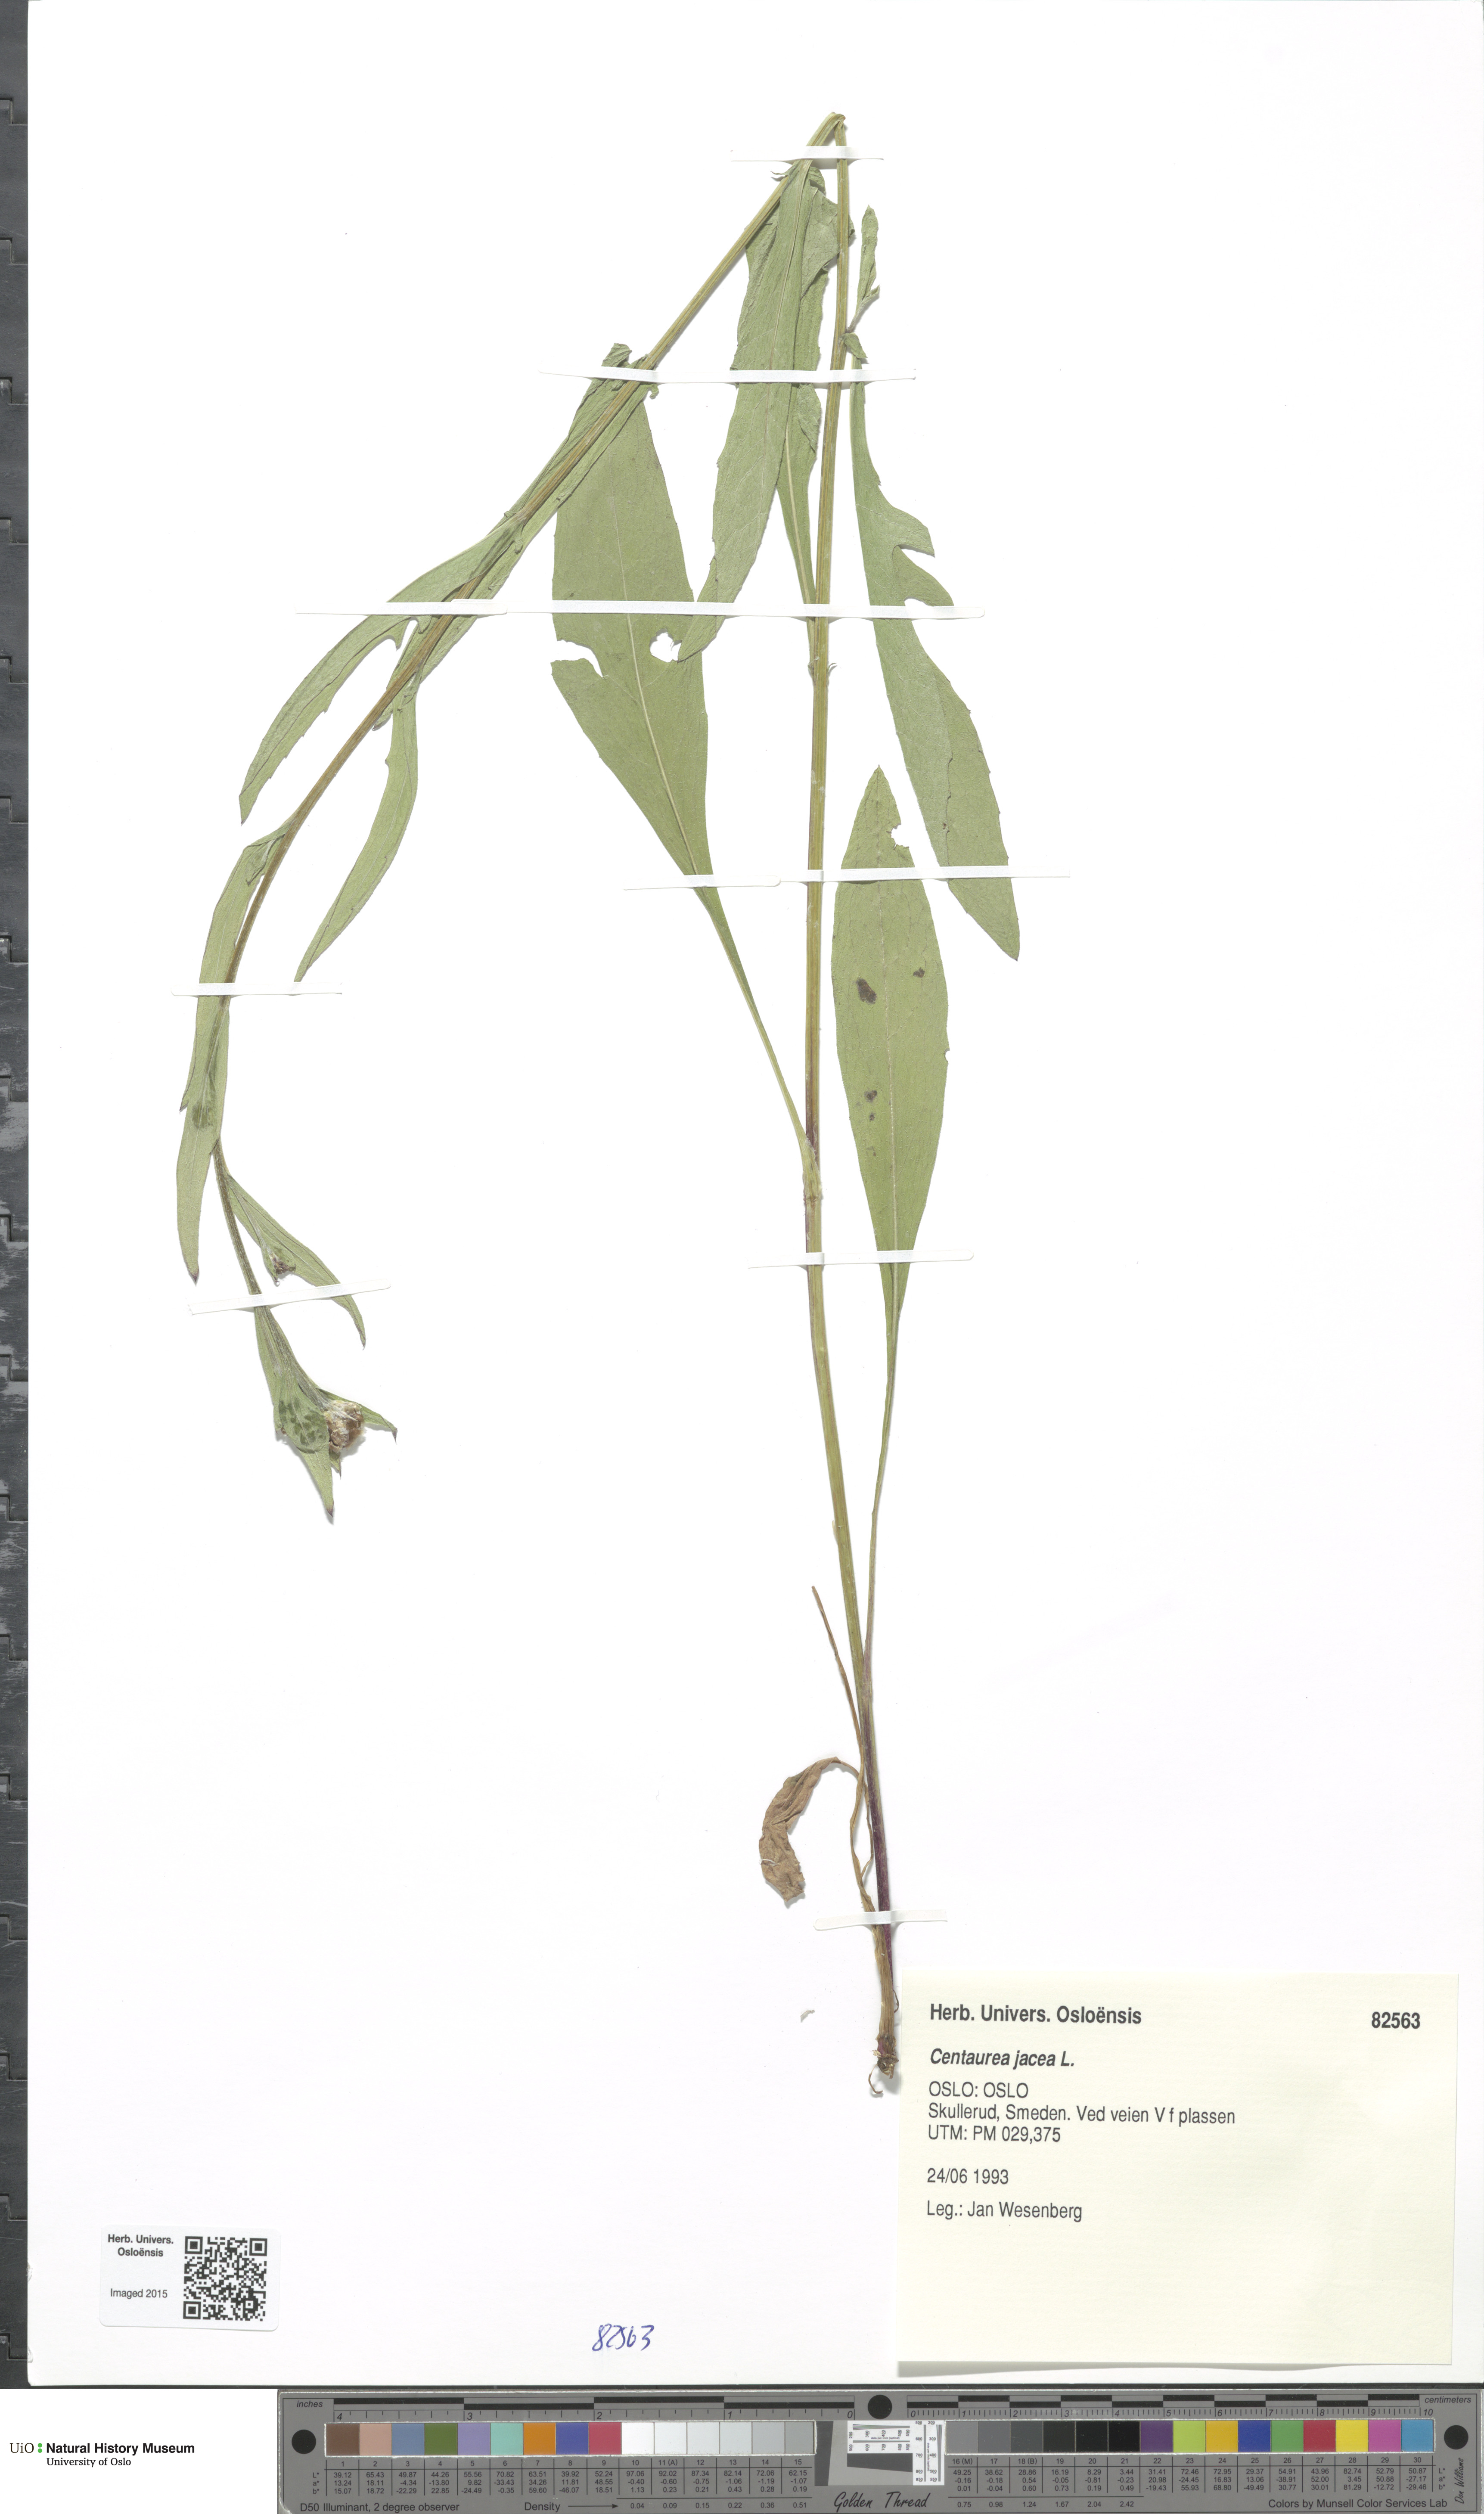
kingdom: Plantae
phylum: Tracheophyta
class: Magnoliopsida
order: Asterales
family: Asteraceae
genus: Centaurea
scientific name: Centaurea jacea
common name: Brown knapweed
